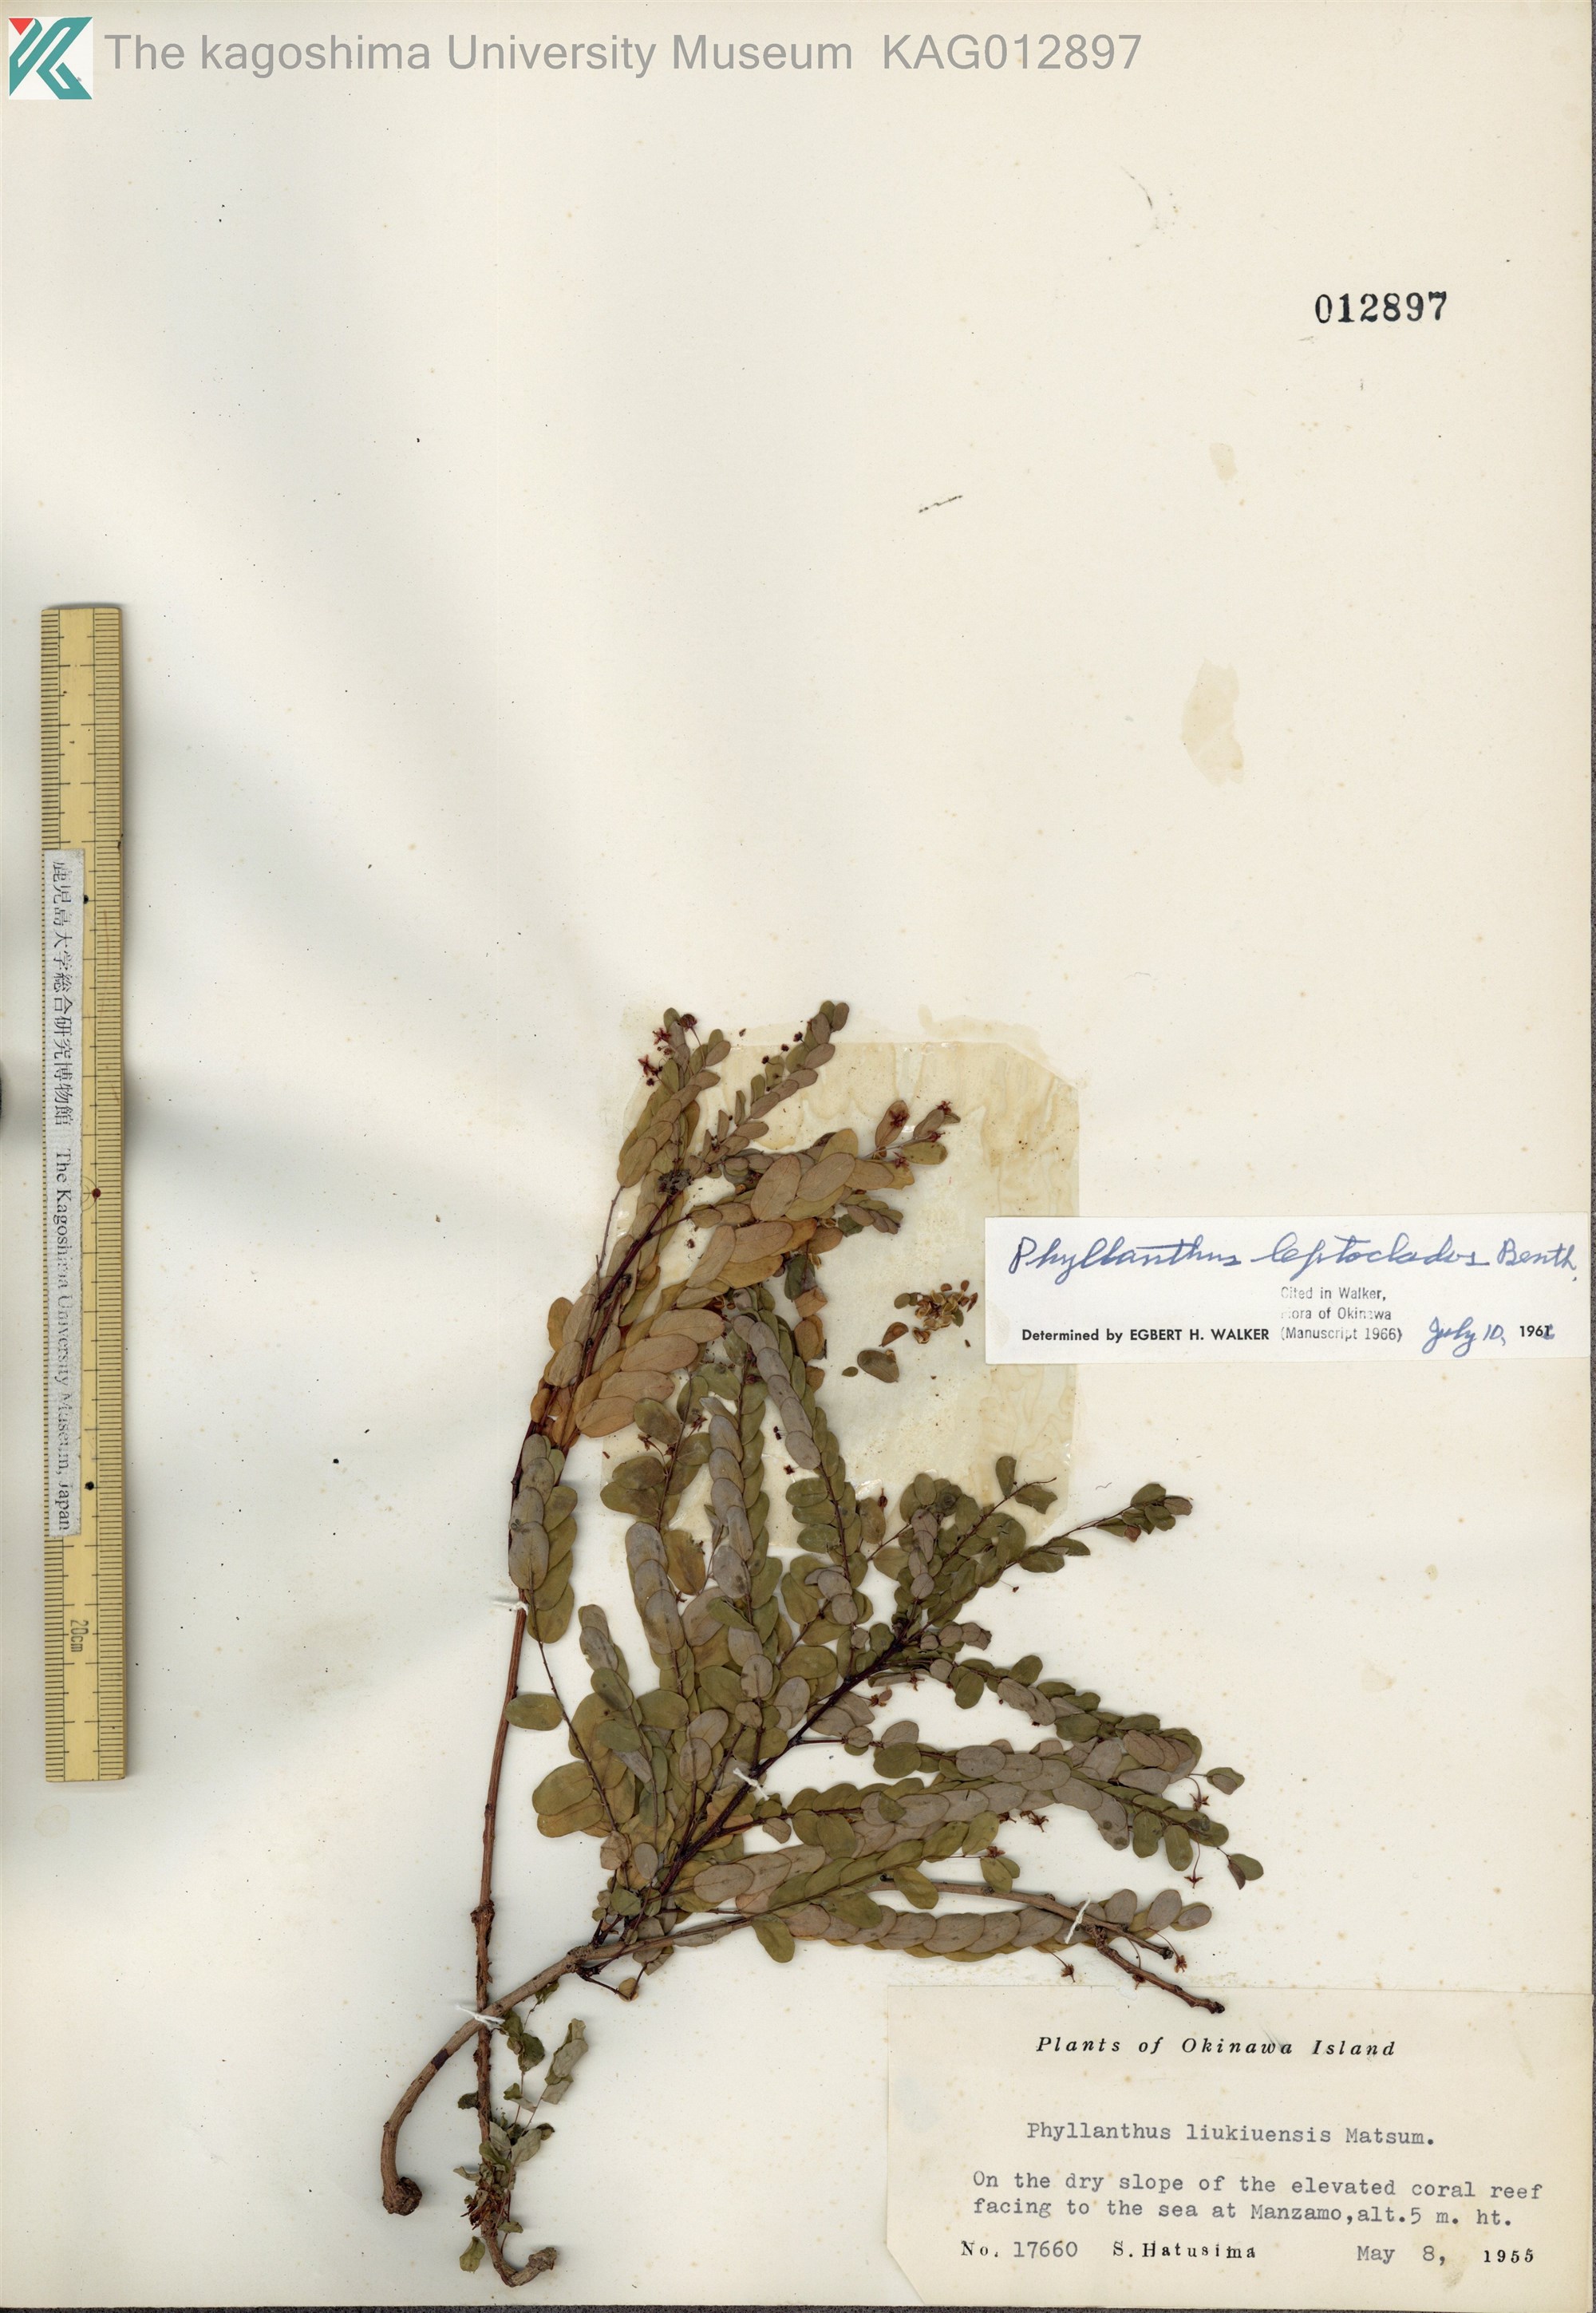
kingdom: Plantae
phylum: Tracheophyta
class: Magnoliopsida
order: Malpighiales
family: Phyllanthaceae
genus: Phyllanthus
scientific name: Phyllanthus liukiuensis
